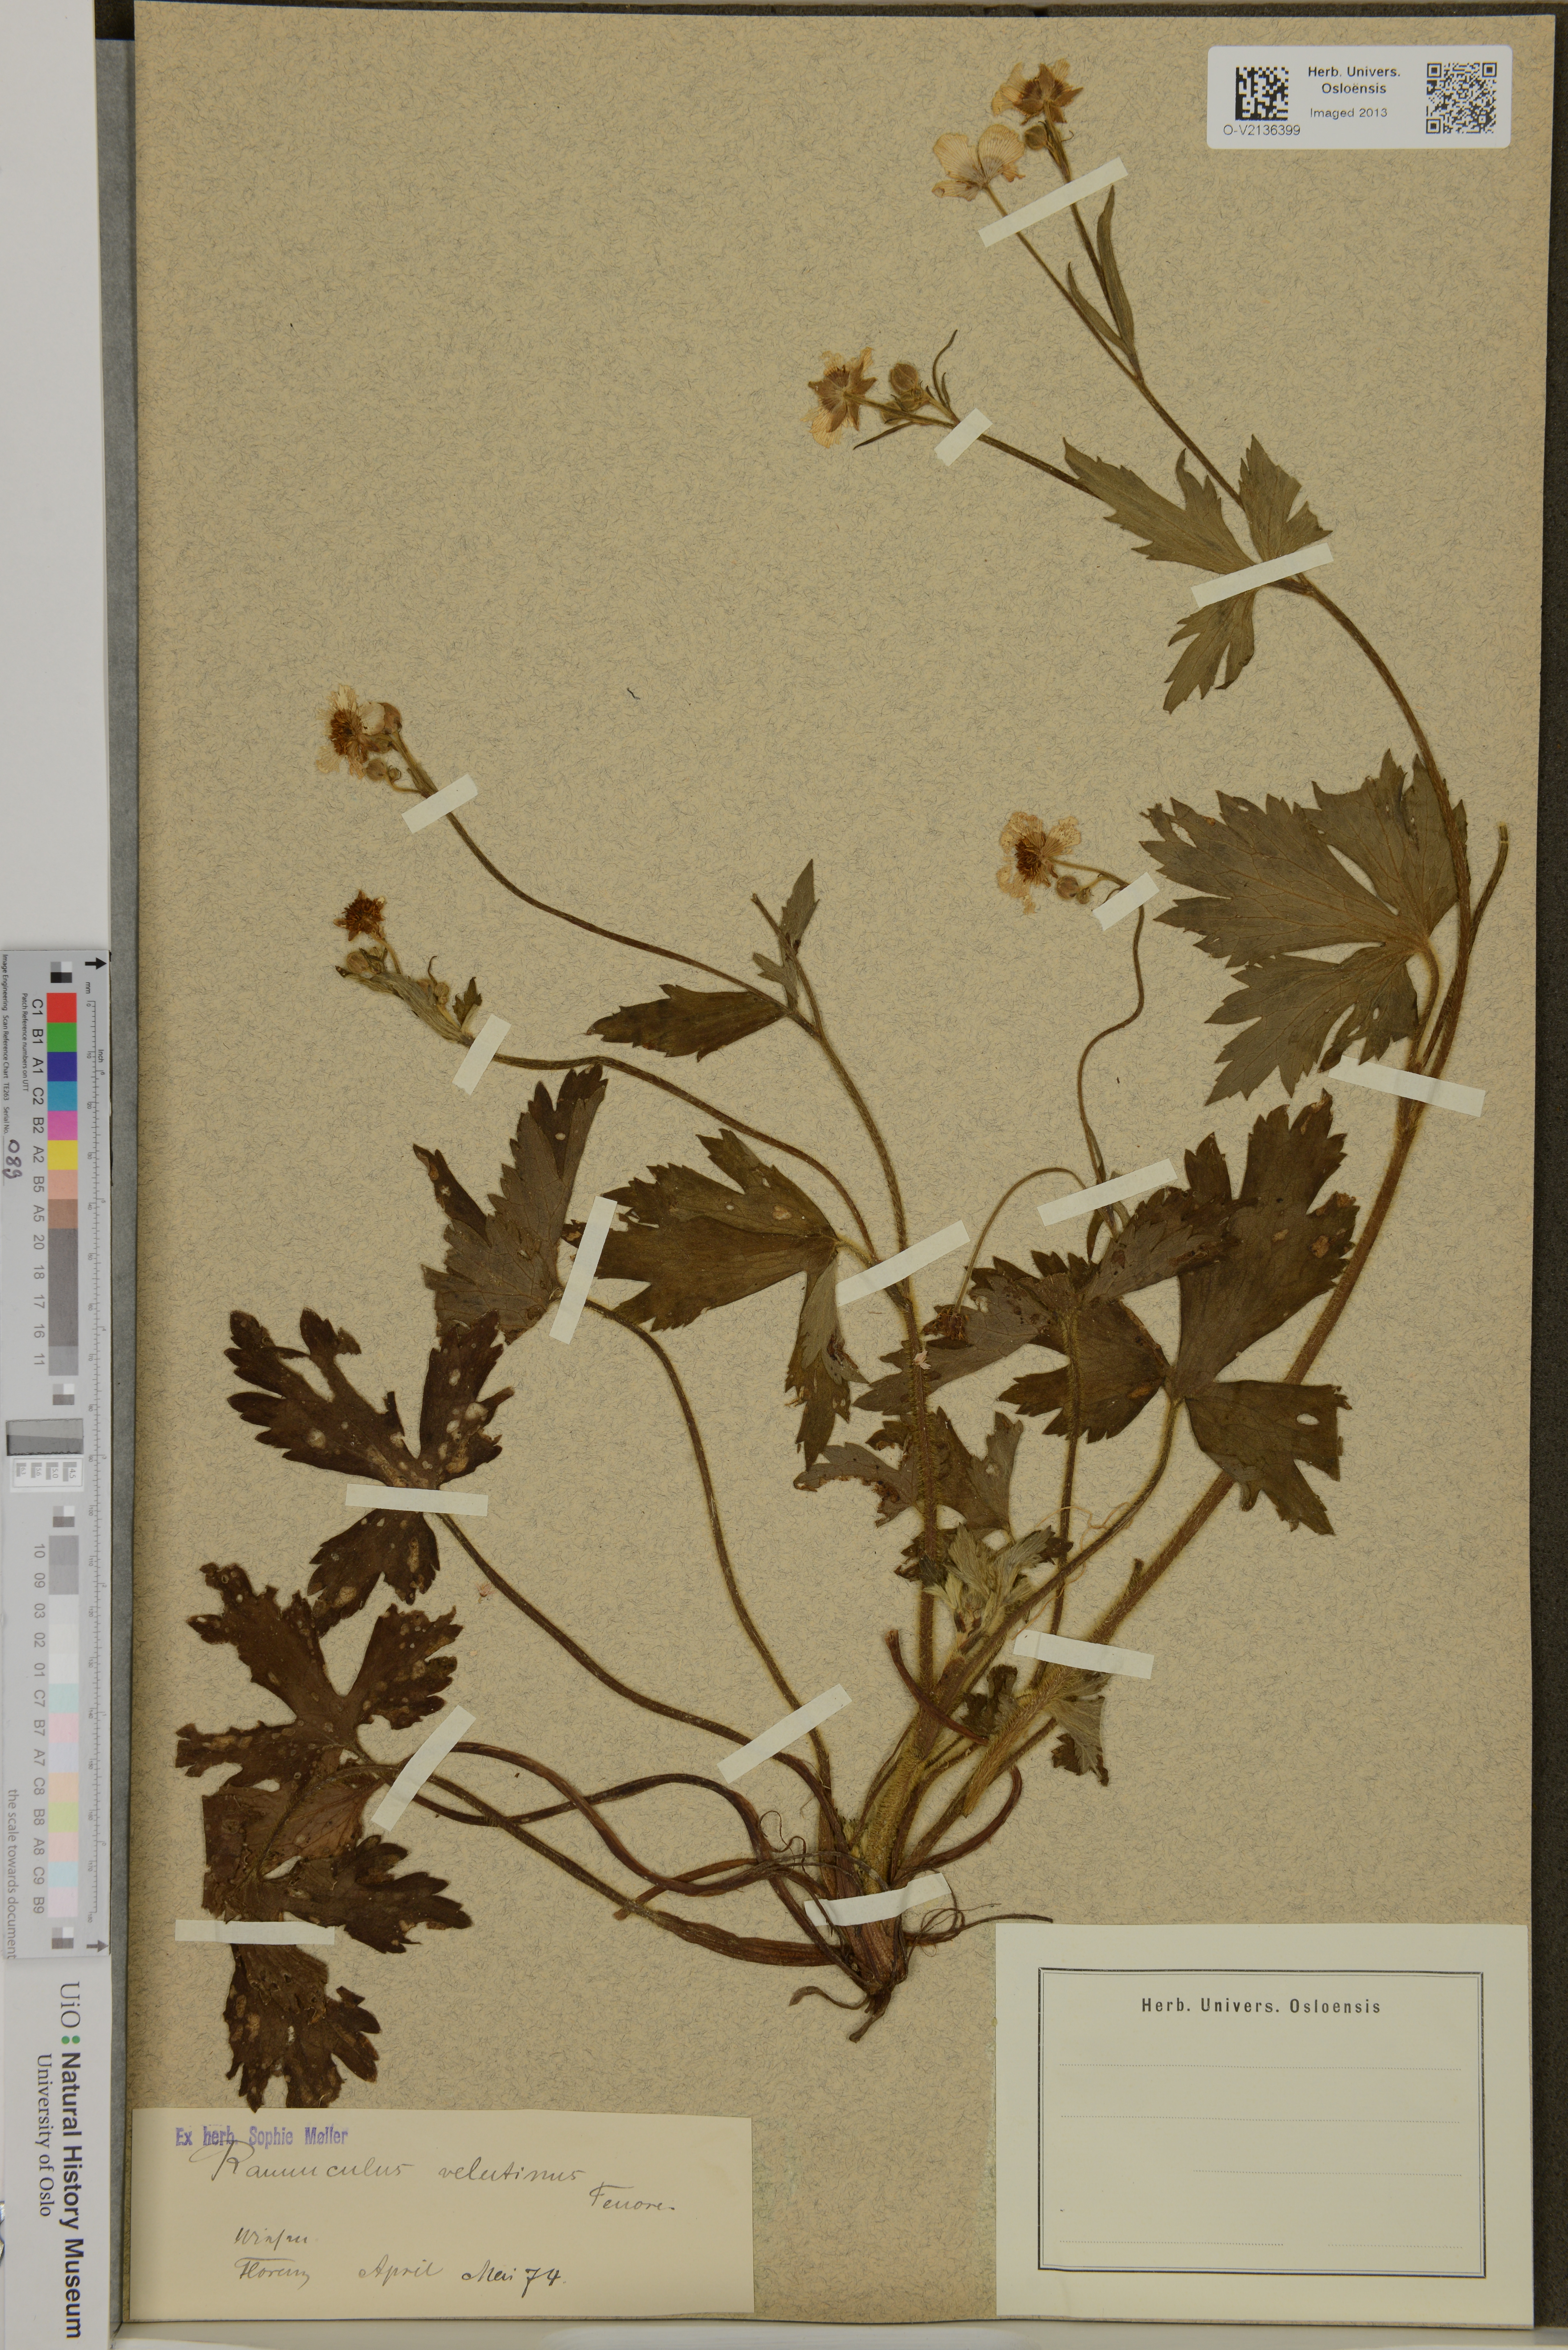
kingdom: Plantae
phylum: Tracheophyta
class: Magnoliopsida
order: Ranunculales
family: Ranunculaceae
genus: Ranunculus
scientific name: Ranunculus velutinus
